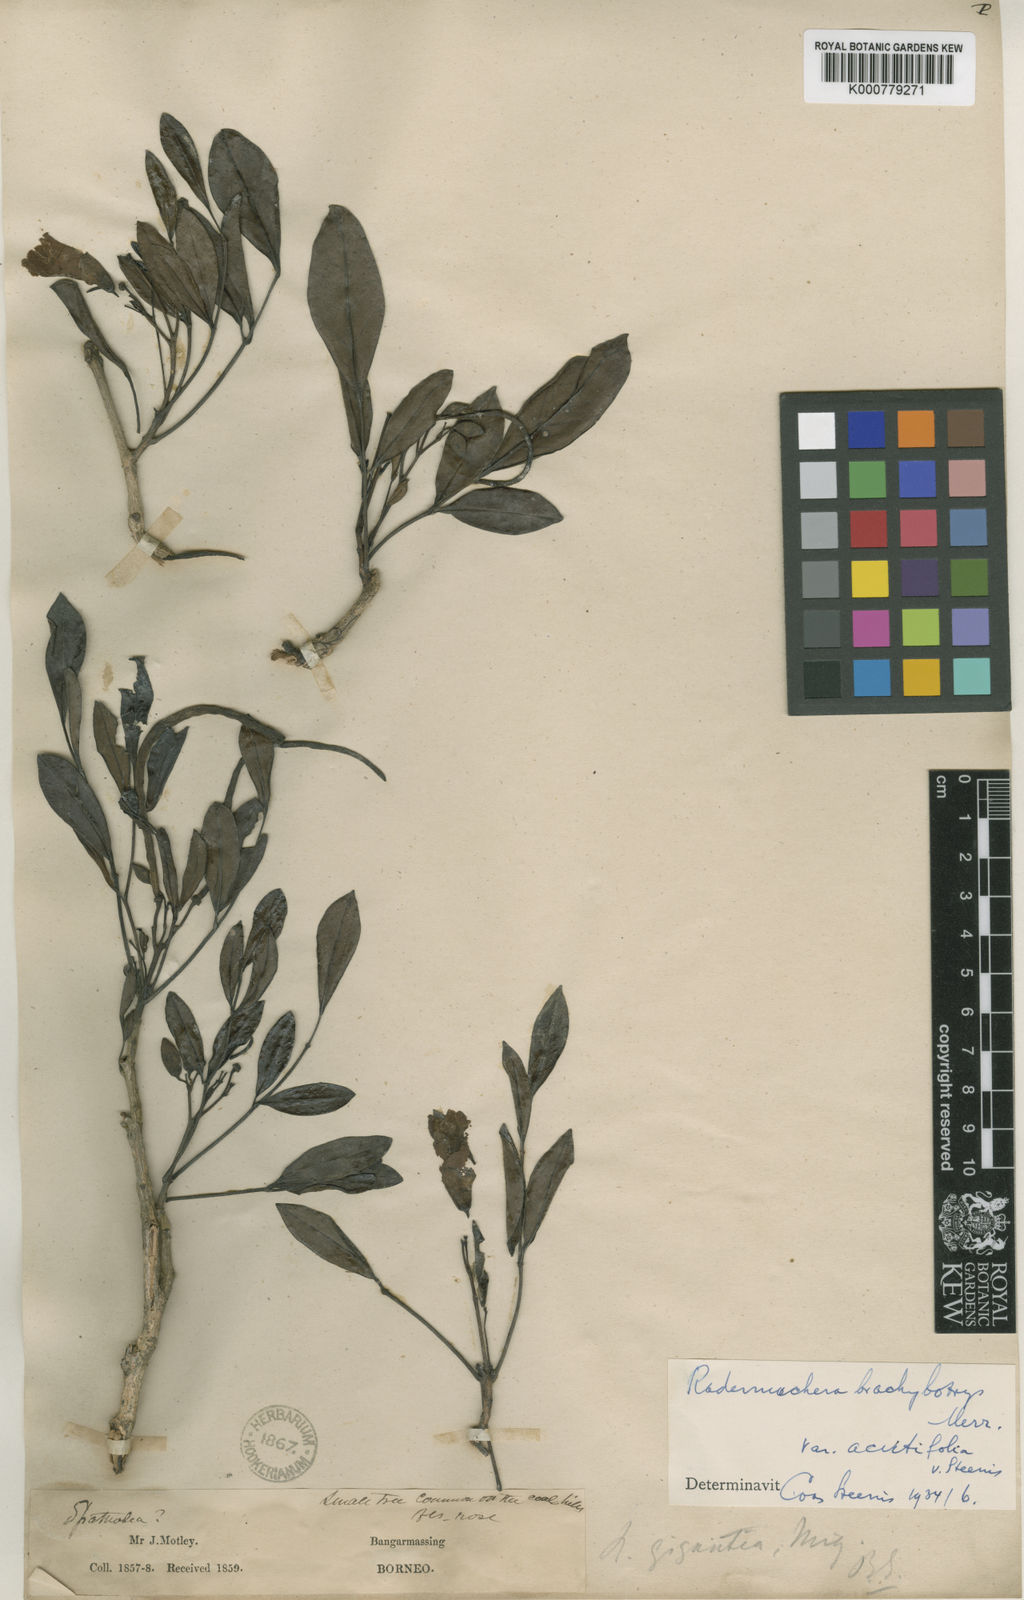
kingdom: Plantae
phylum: Tracheophyta
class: Magnoliopsida
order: Lamiales
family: Bignoniaceae
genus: Radermachera
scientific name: Radermachera pinnata
